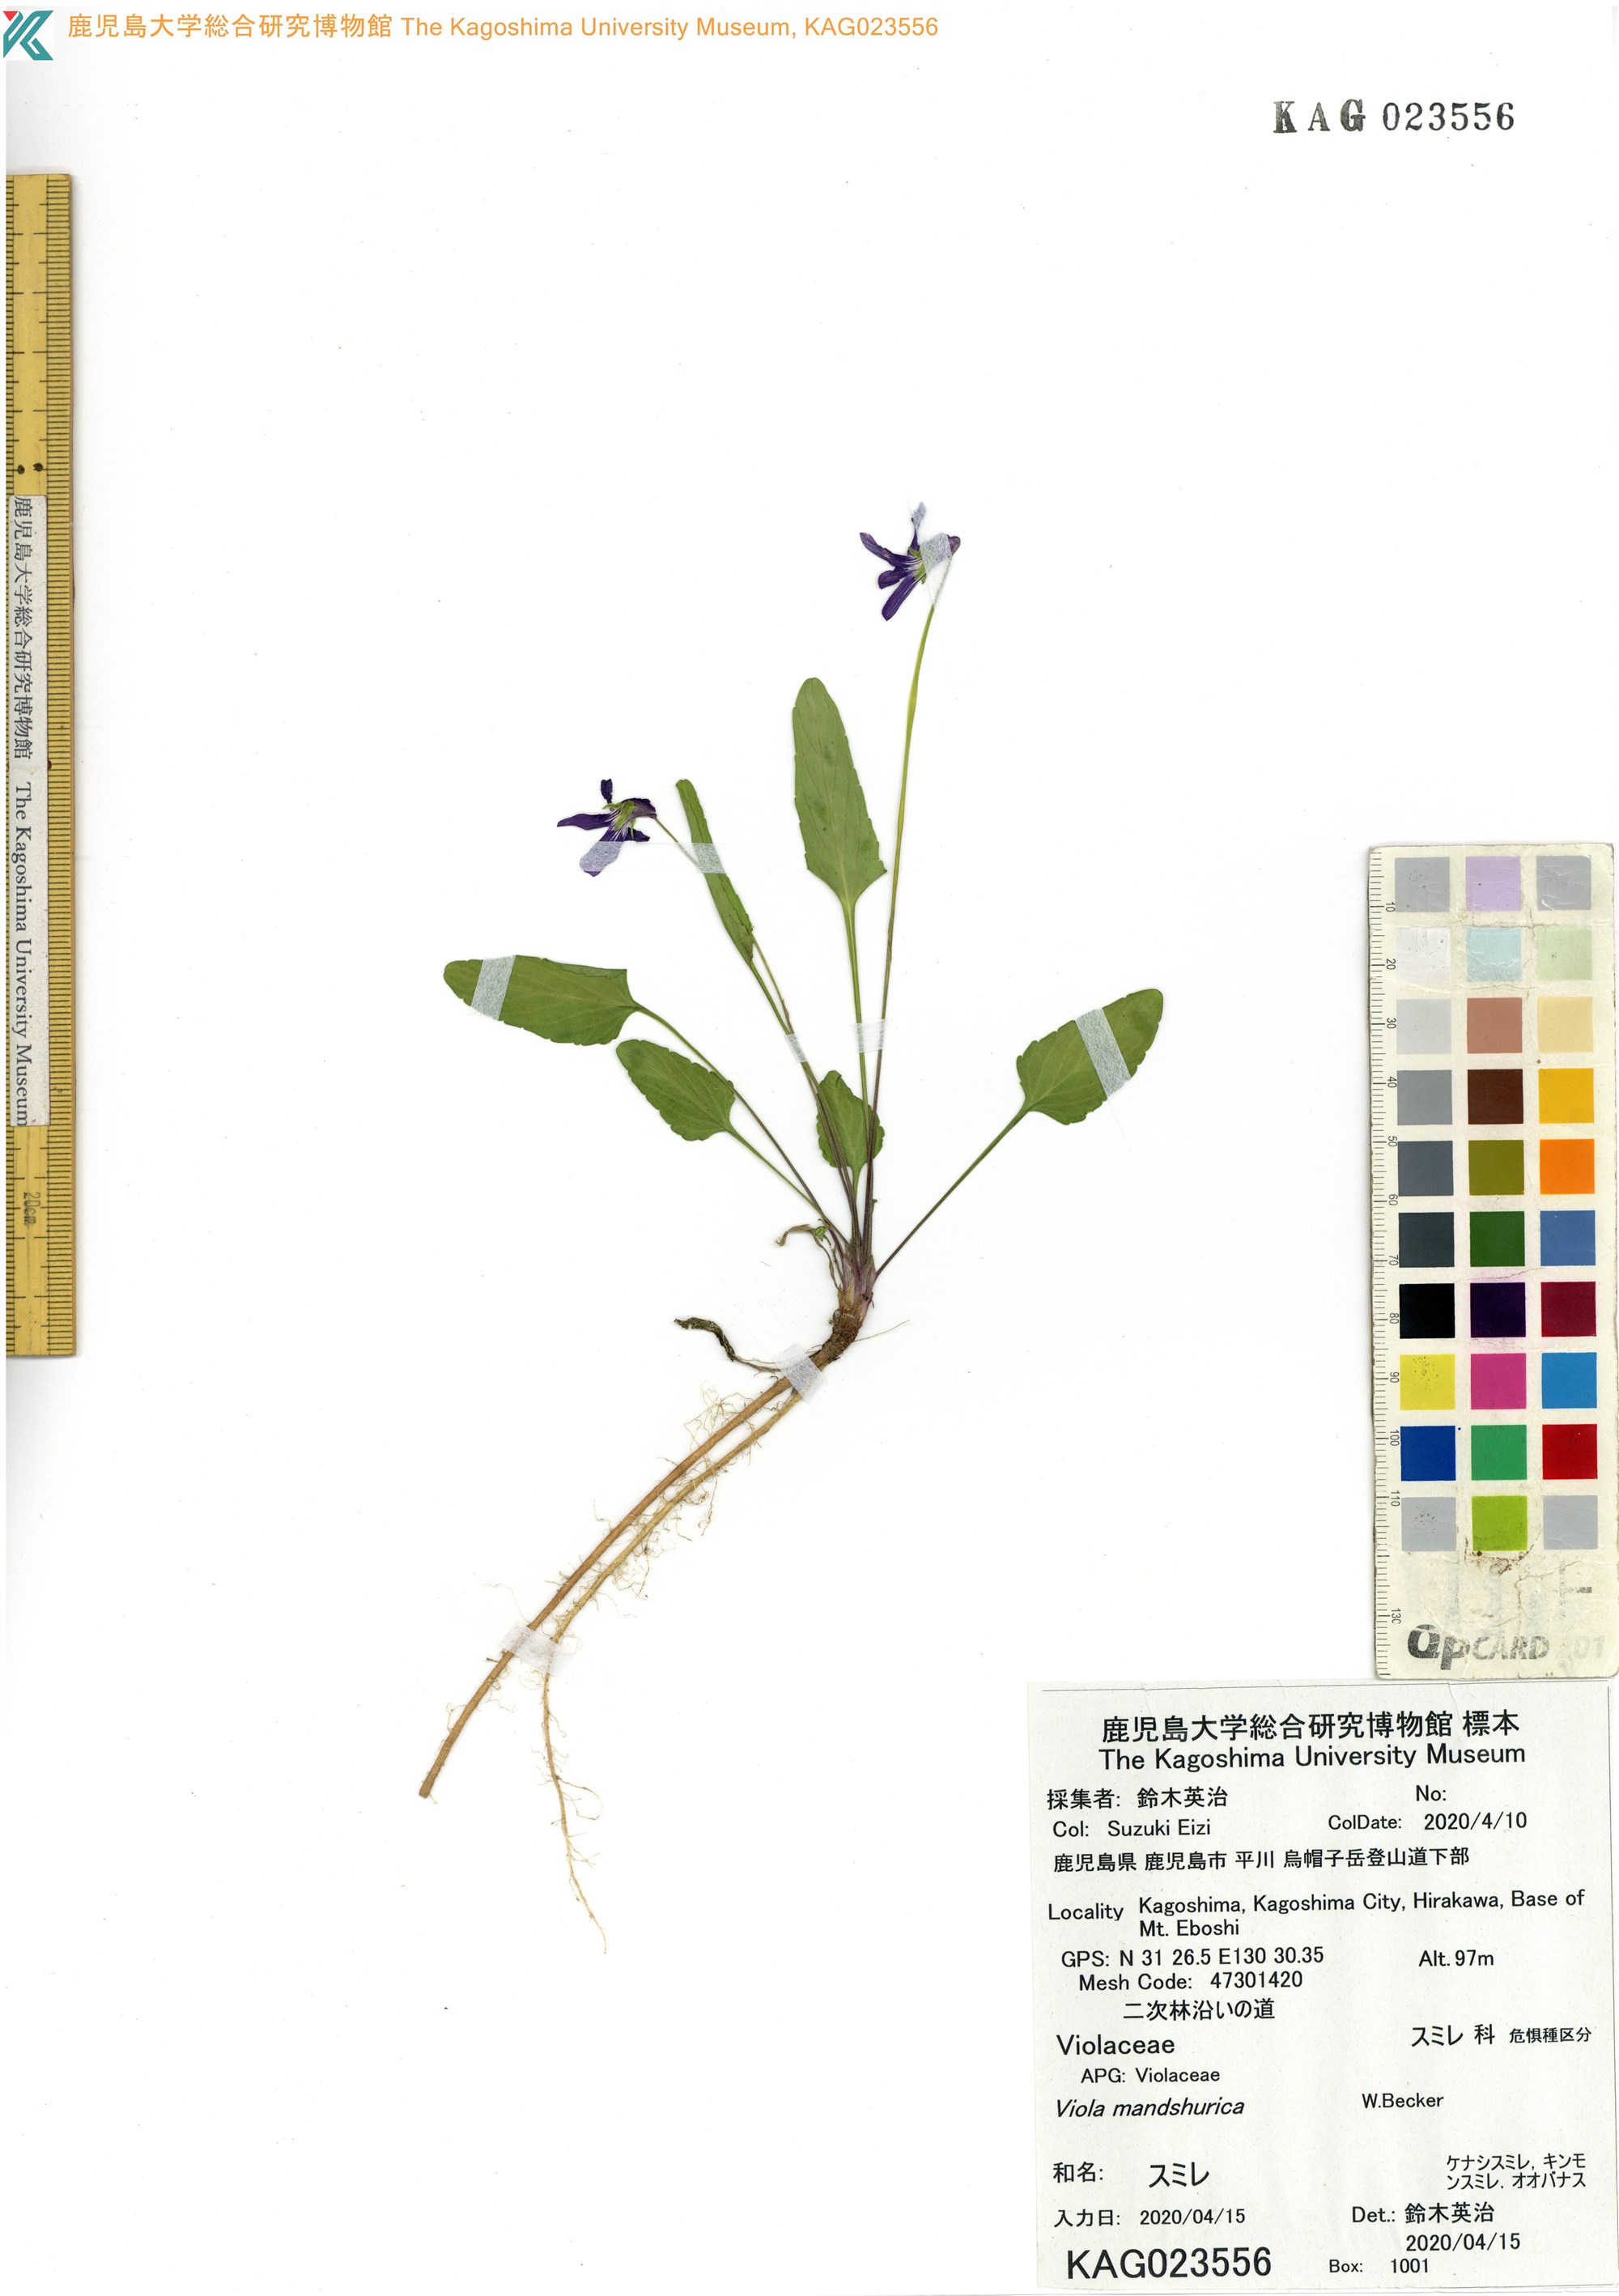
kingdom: Plantae
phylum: Tracheophyta
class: Magnoliopsida
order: Malpighiales
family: Violaceae
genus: Viola
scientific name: Viola mandshurica
